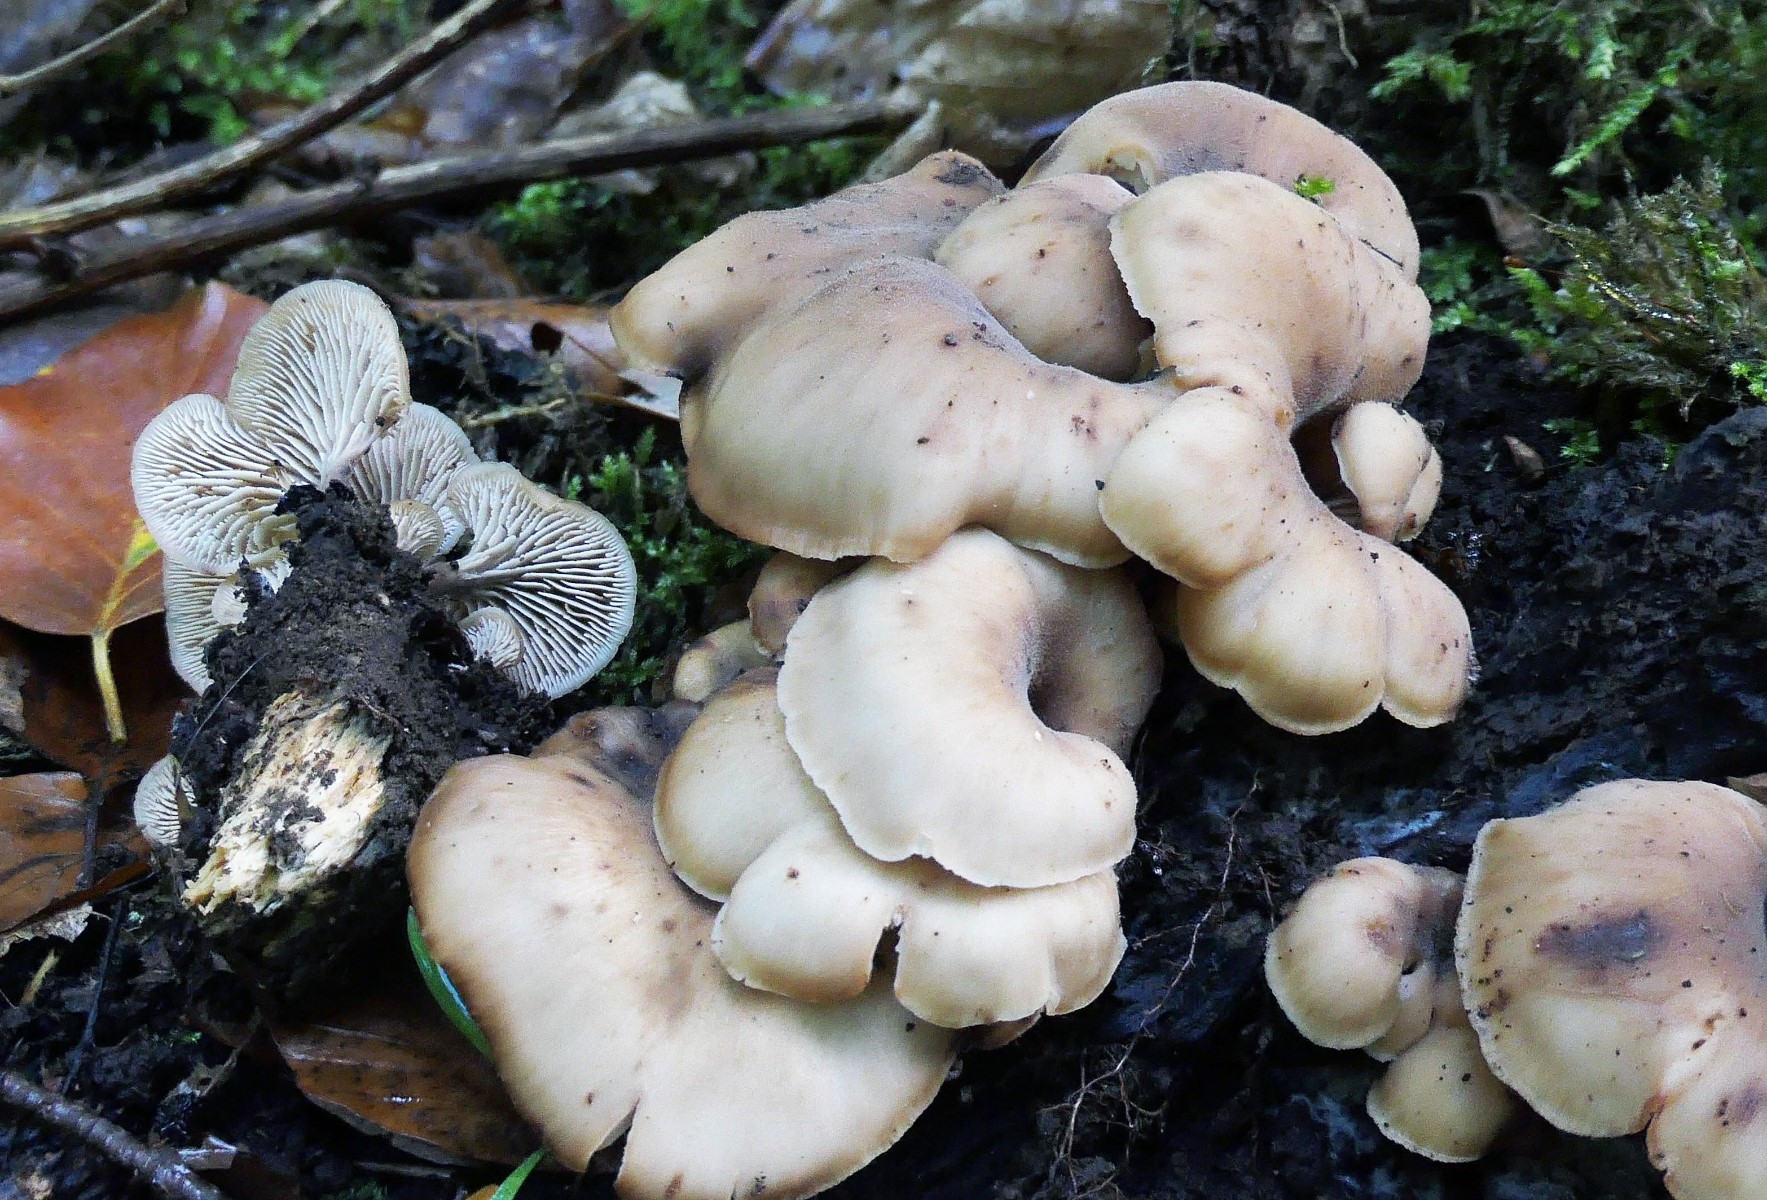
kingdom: Fungi
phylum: Basidiomycota
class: Agaricomycetes
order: Russulales
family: Auriscalpiaceae
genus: Lentinellus
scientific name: Lentinellus cochleatus
